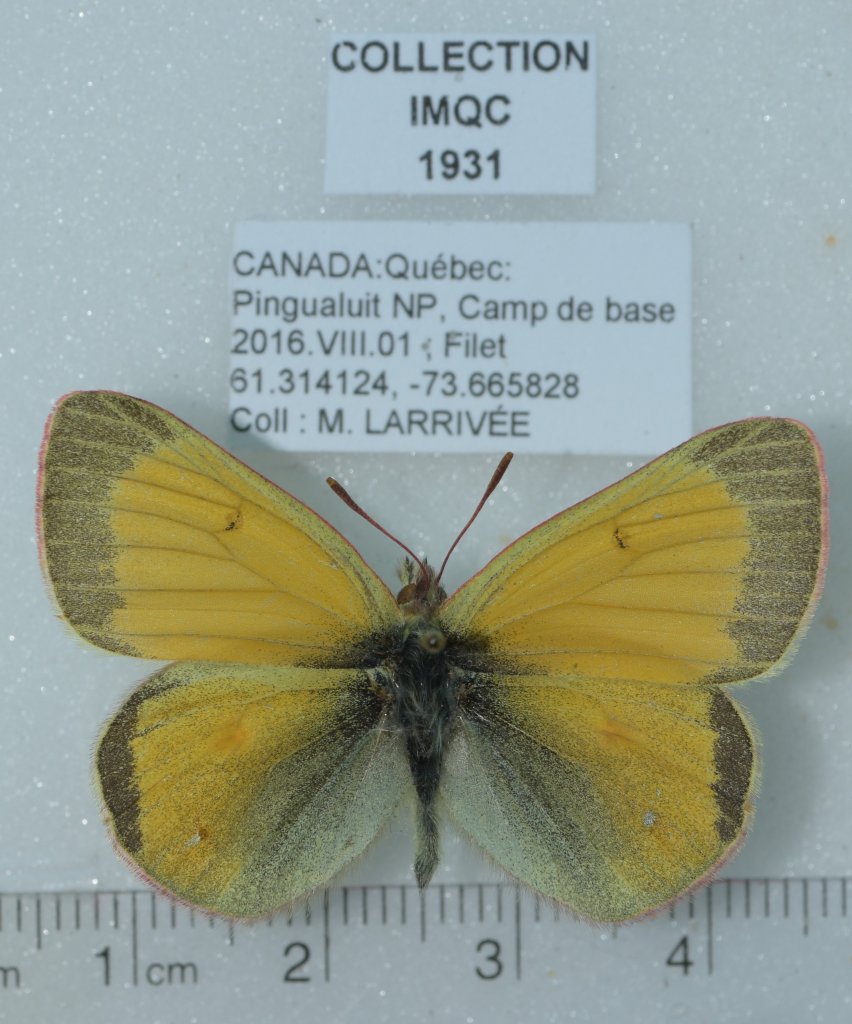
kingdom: Animalia
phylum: Arthropoda
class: Insecta
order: Lepidoptera
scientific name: Lepidoptera
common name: Butterflies
